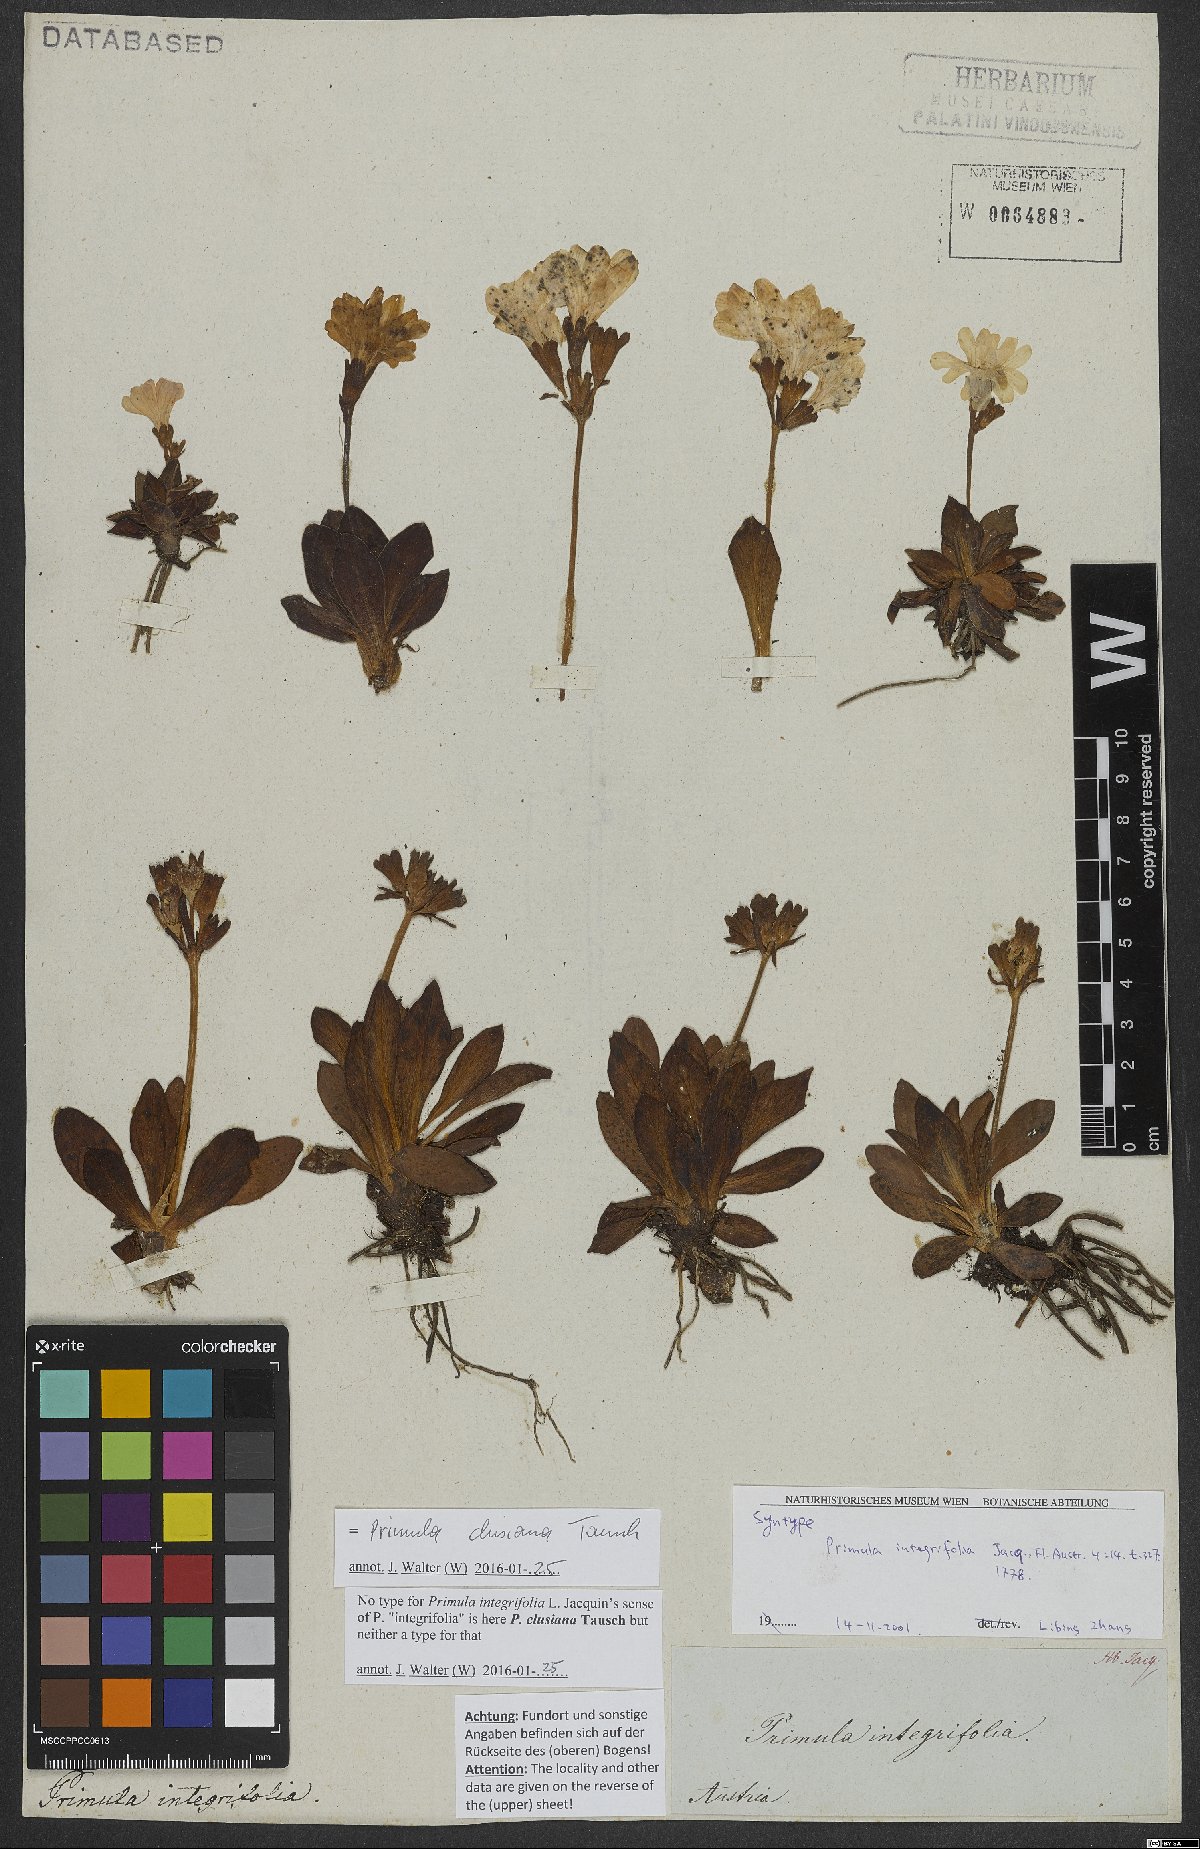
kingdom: Plantae
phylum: Tracheophyta
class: Magnoliopsida
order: Ericales
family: Primulaceae
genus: Primula
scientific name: Primula clusiana
